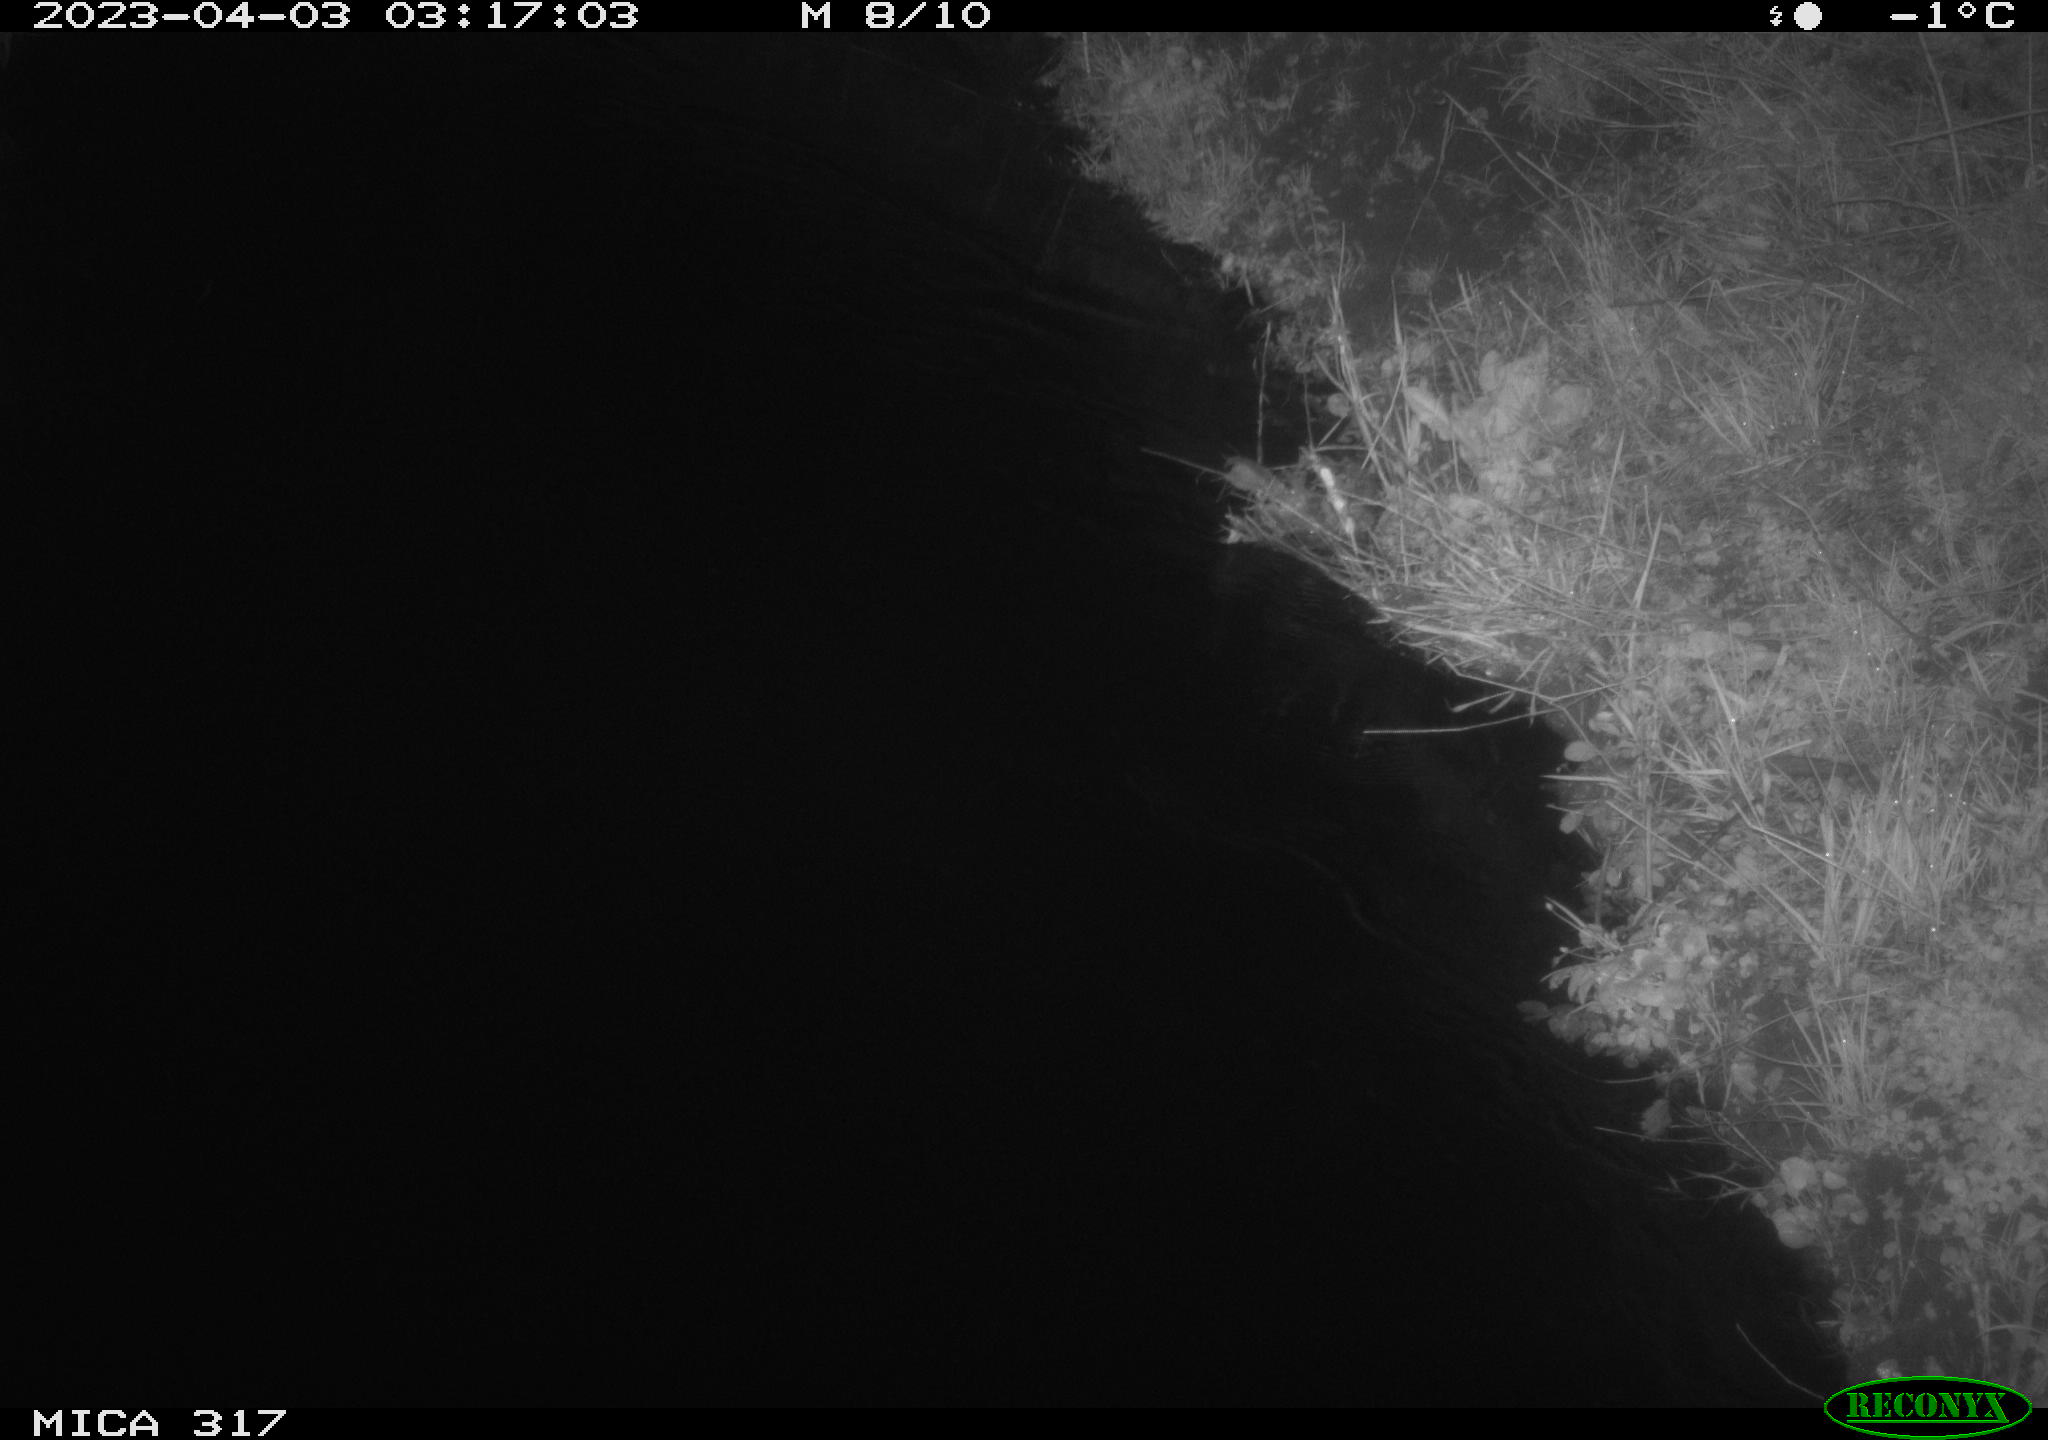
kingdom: Animalia
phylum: Chordata
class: Aves
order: Anseriformes
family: Anatidae
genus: Anas
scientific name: Anas
